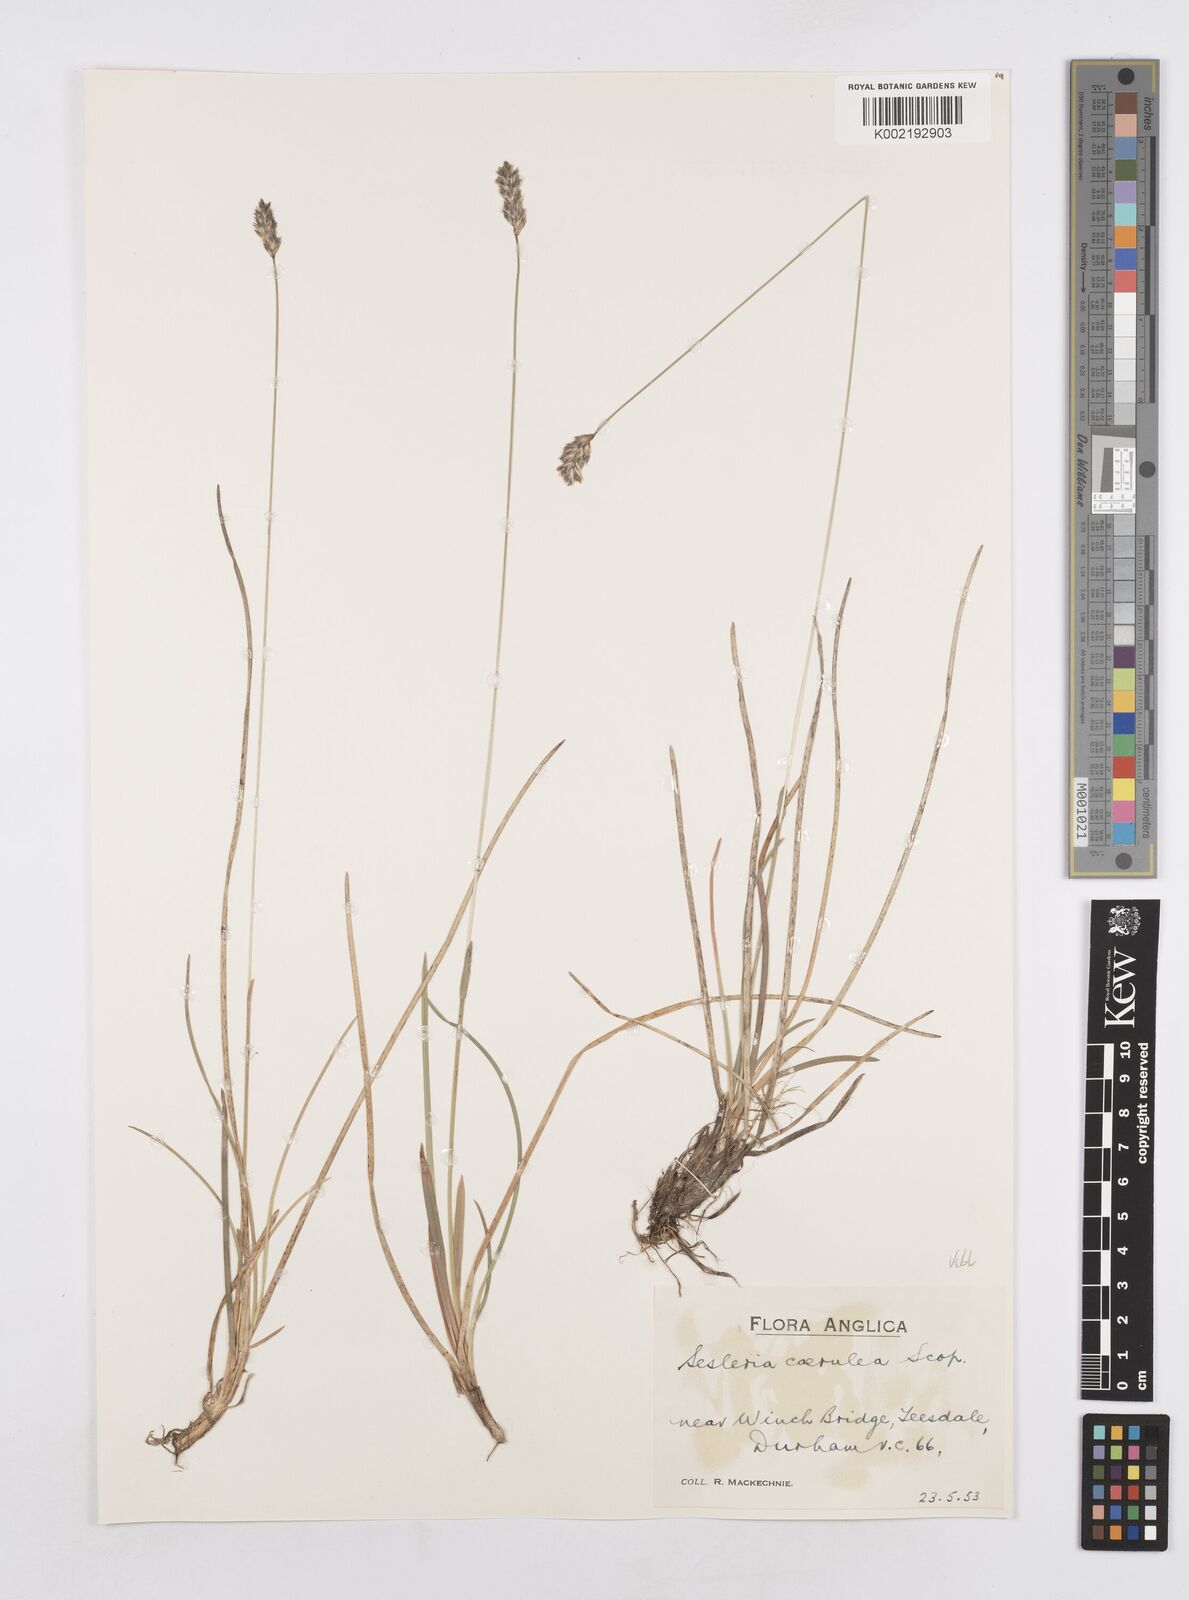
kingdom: Plantae
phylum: Tracheophyta
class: Liliopsida
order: Poales
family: Poaceae
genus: Sesleria
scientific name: Sesleria caerulea
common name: Blue moor-grass
